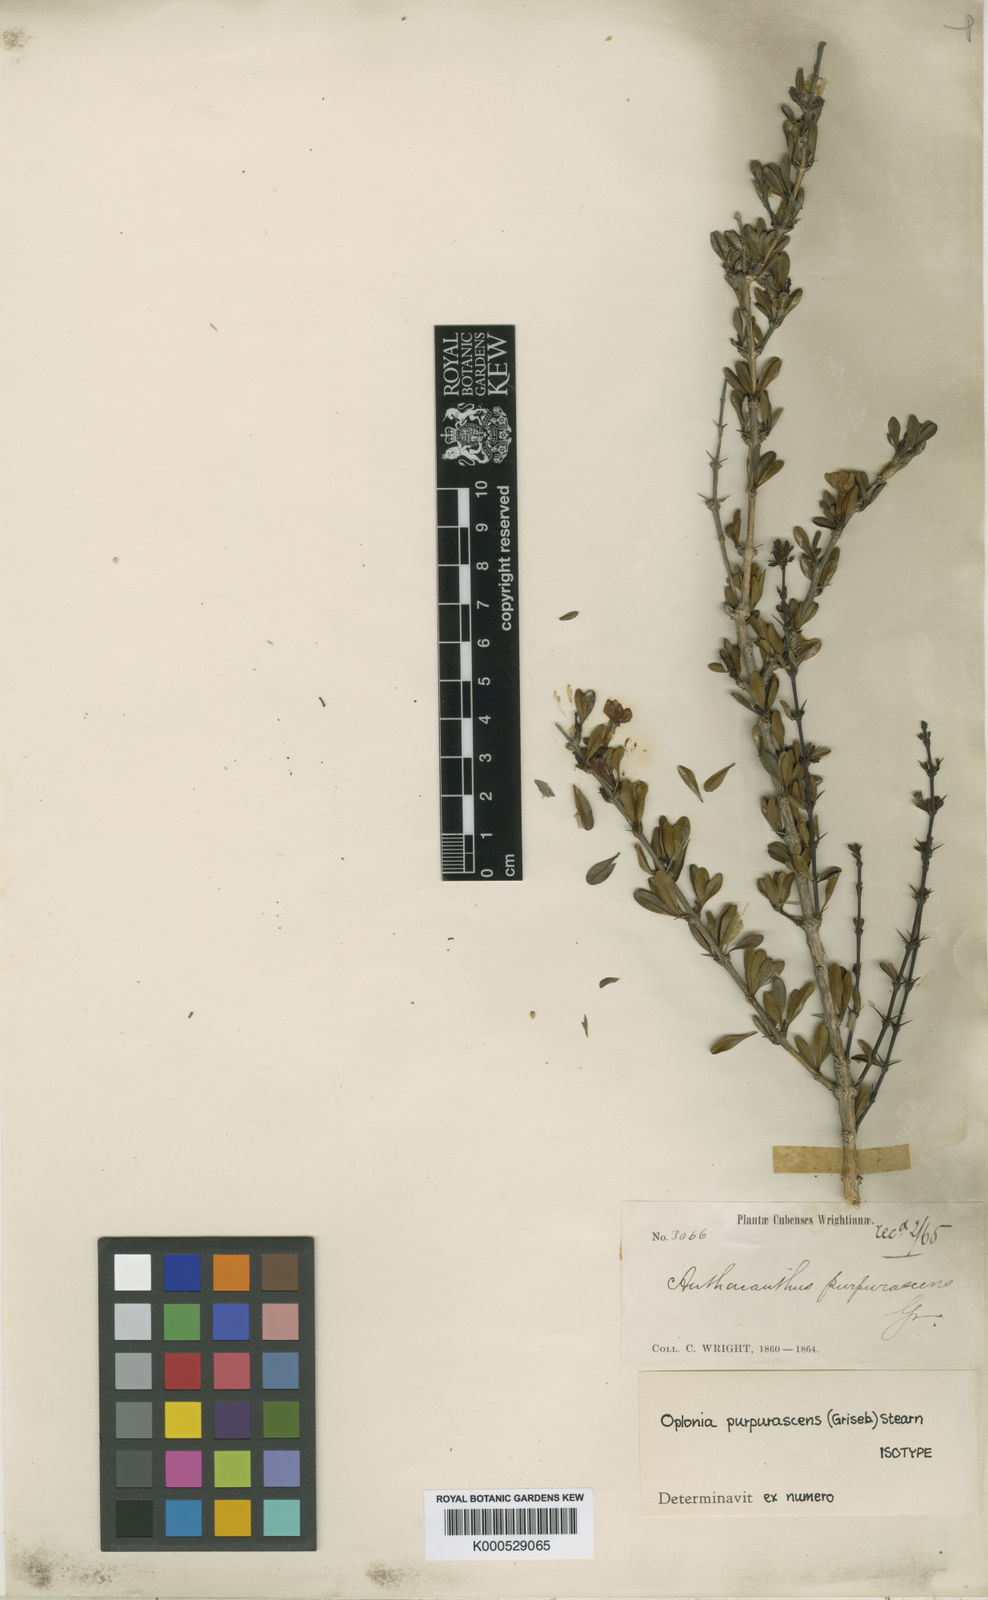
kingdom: Plantae
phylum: Tracheophyta
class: Magnoliopsida
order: Lamiales
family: Acanthaceae
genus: Oplonia
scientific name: Oplonia purpurascens
